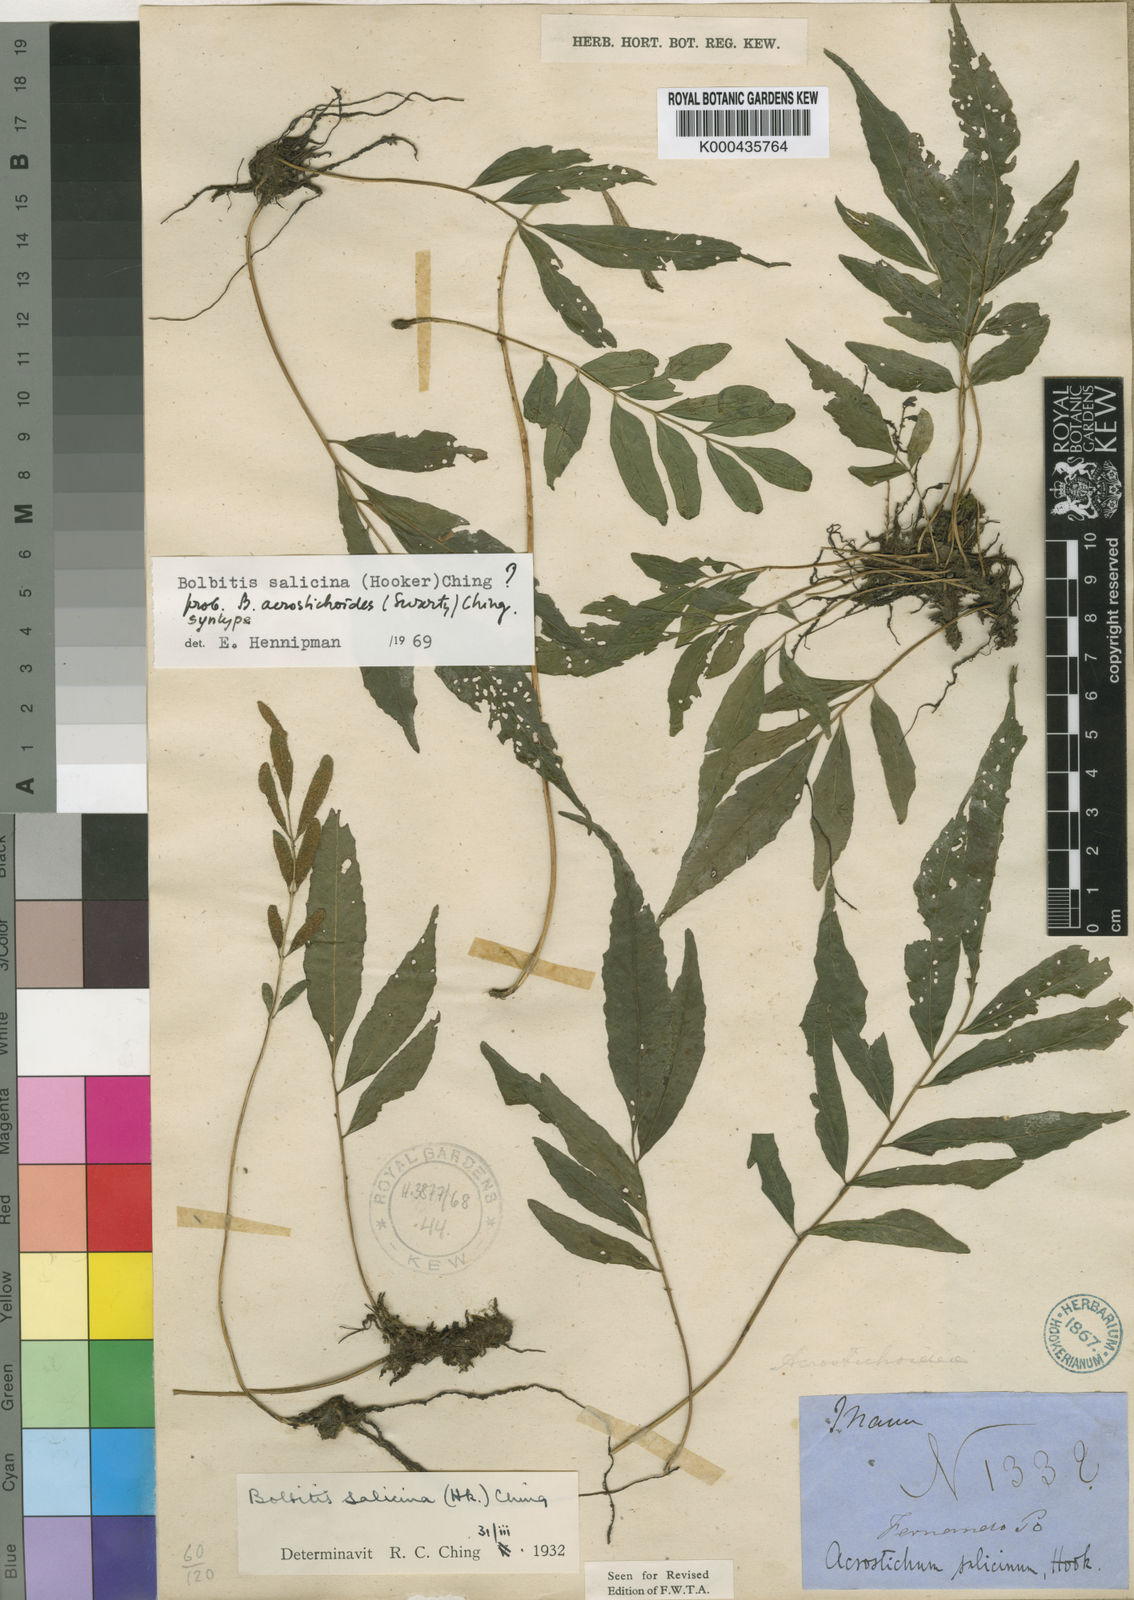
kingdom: Plantae
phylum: Tracheophyta
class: Polypodiopsida
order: Polypodiales
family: Dryopteridaceae
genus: Bolbitis
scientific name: Bolbitis salicina
